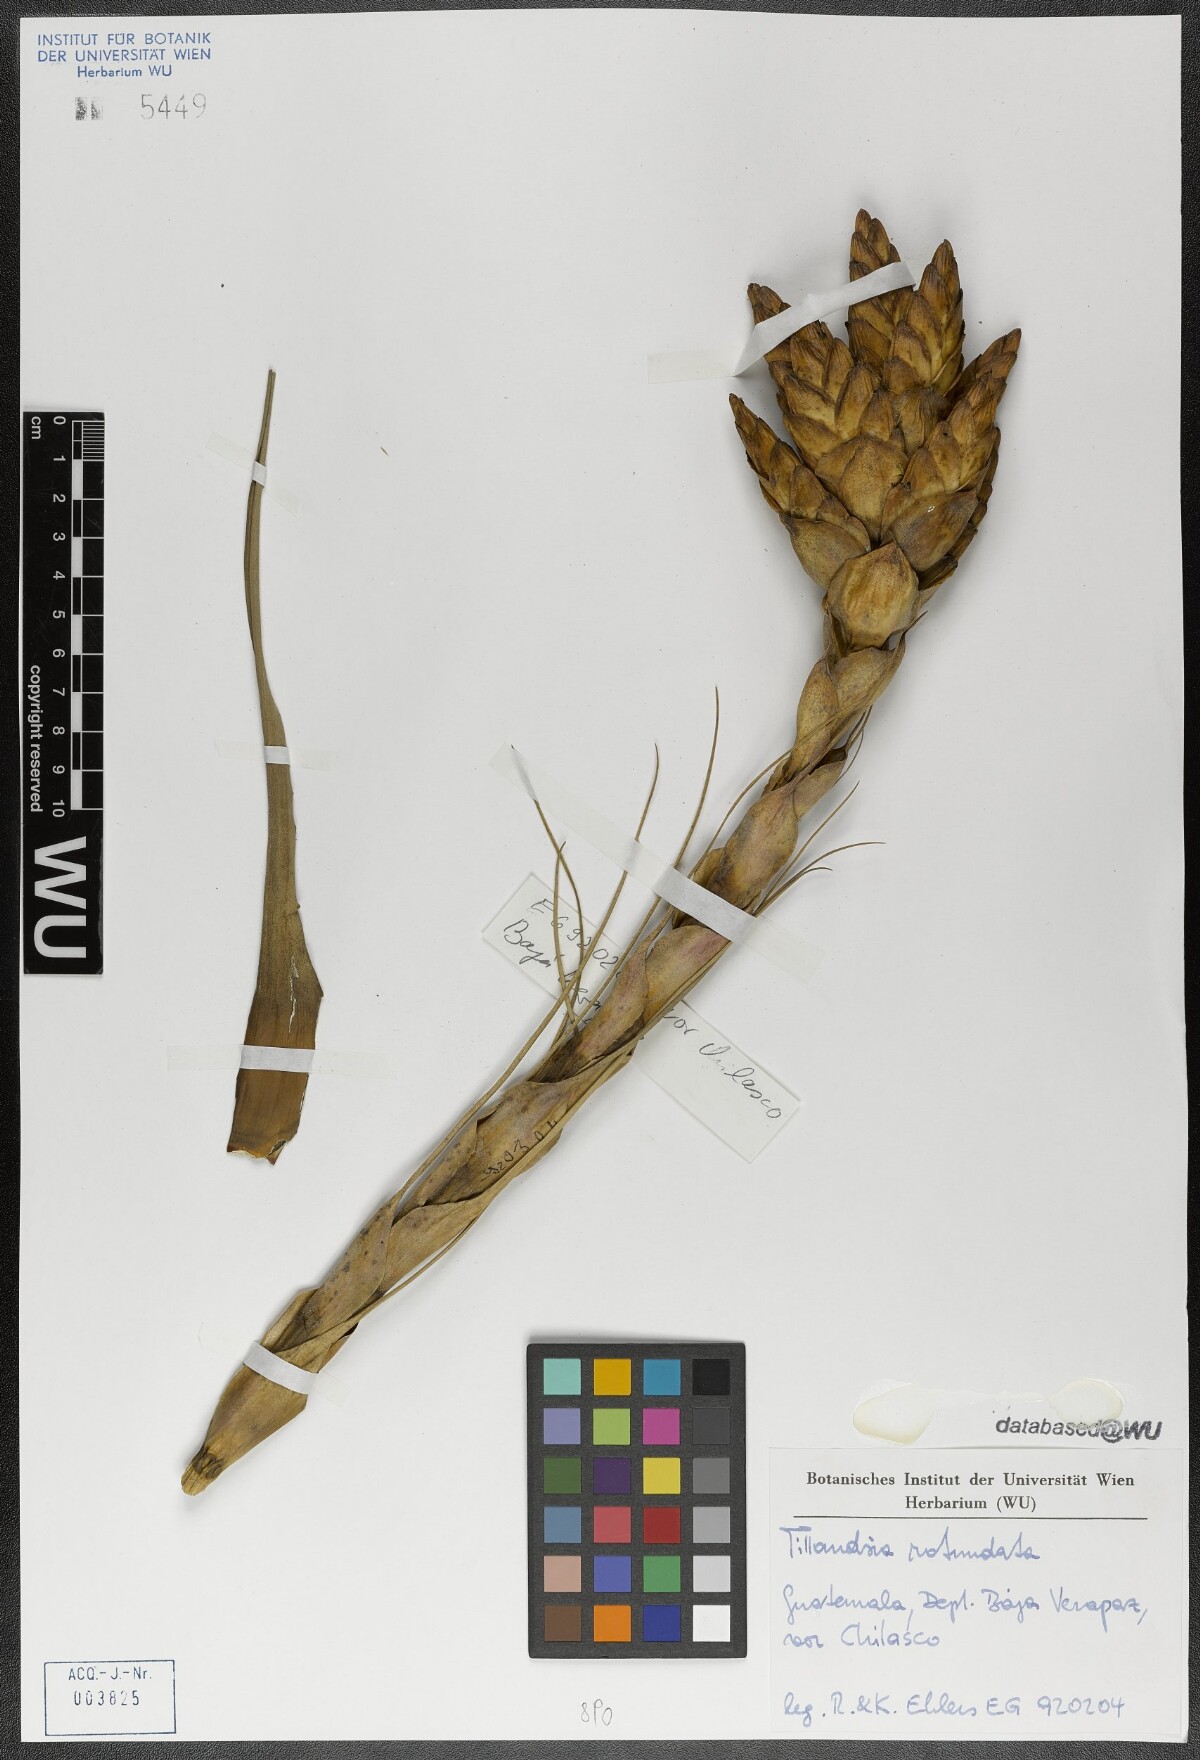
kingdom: Plantae
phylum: Tracheophyta
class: Liliopsida
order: Poales
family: Bromeliaceae
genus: Tillandsia
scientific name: Tillandsia rotundata
